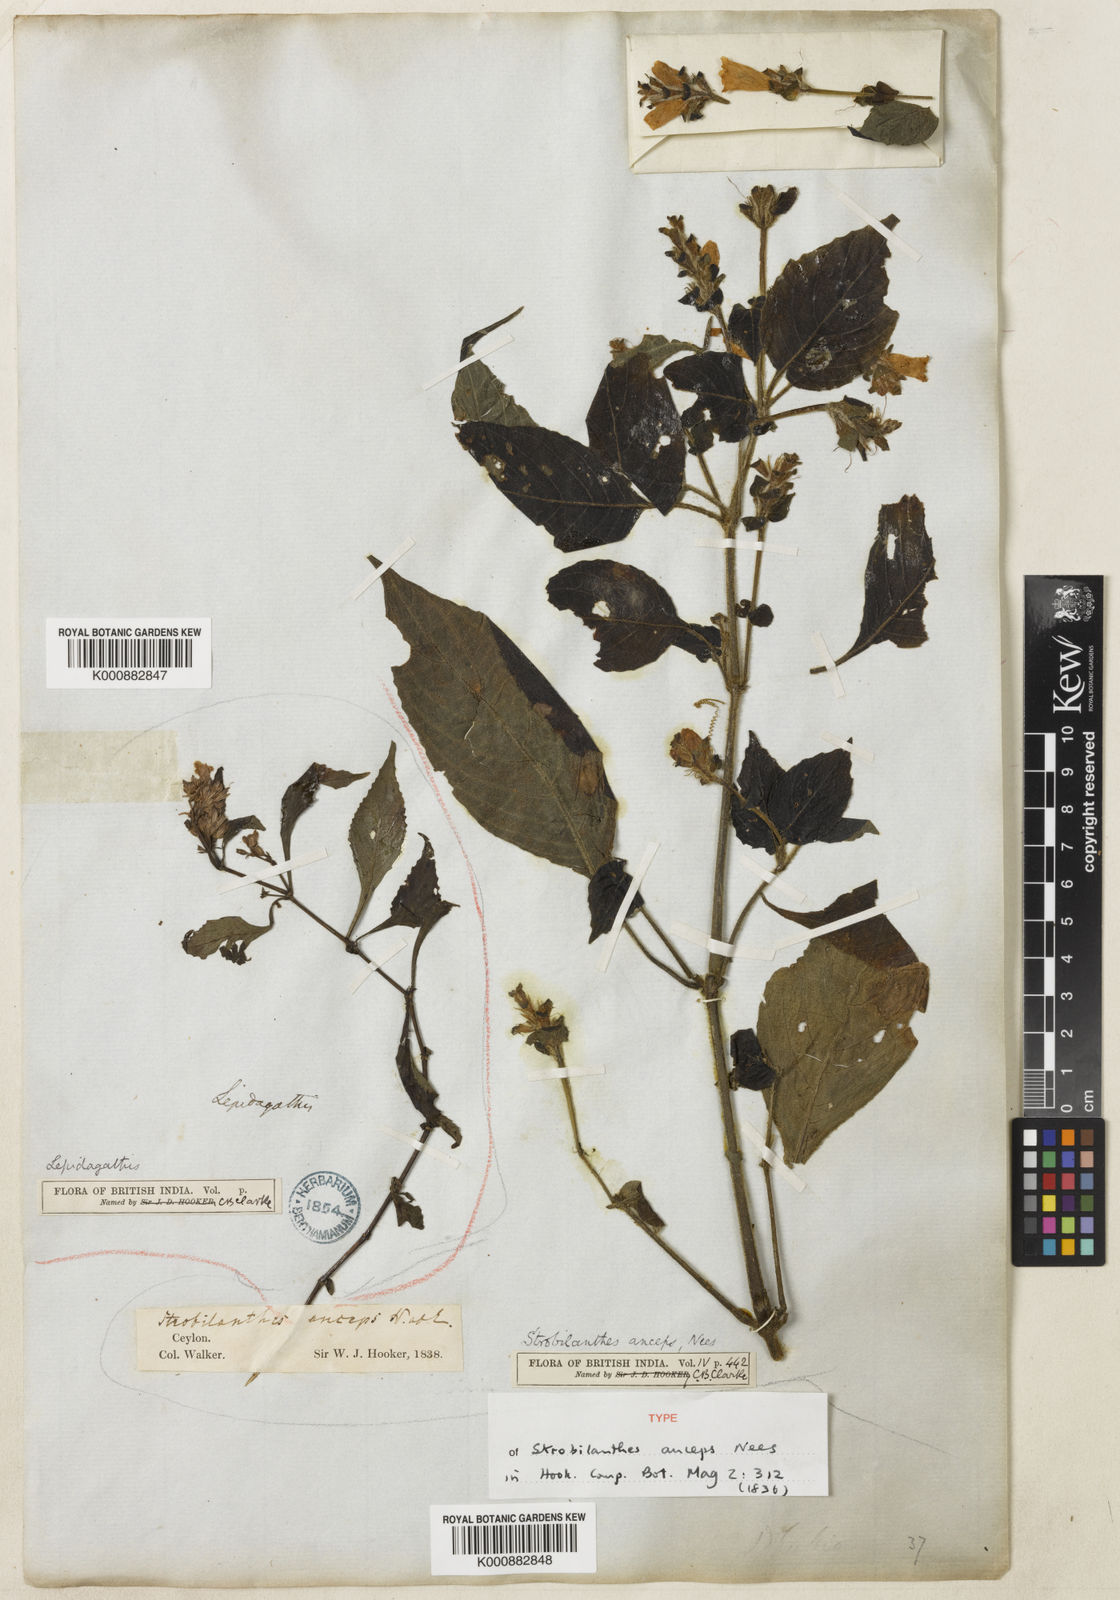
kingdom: Plantae
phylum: Tracheophyta
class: Magnoliopsida
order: Lamiales
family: Acanthaceae
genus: Strobilanthes
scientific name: Strobilanthes anceps
